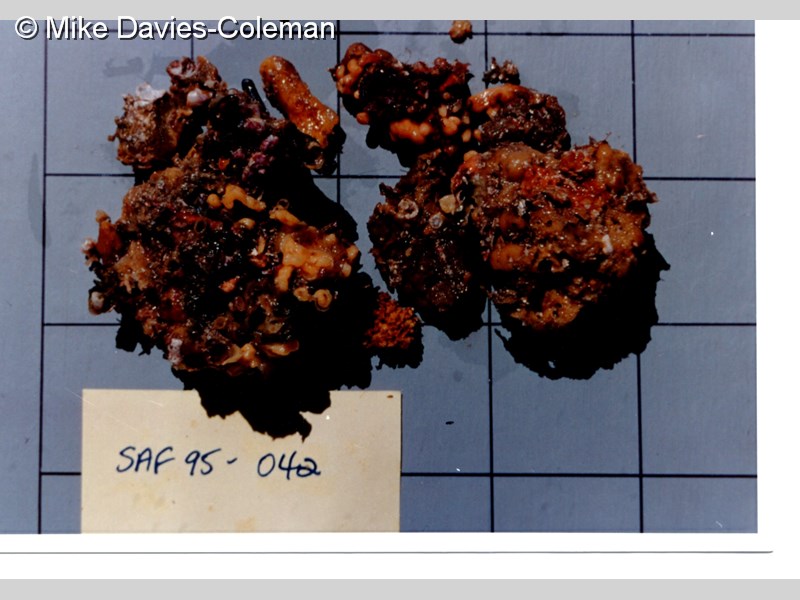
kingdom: Animalia
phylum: Porifera
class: Demospongiae
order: Haplosclerida
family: Phloeodictyidae
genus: Oceanapia
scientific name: Oceanapia
